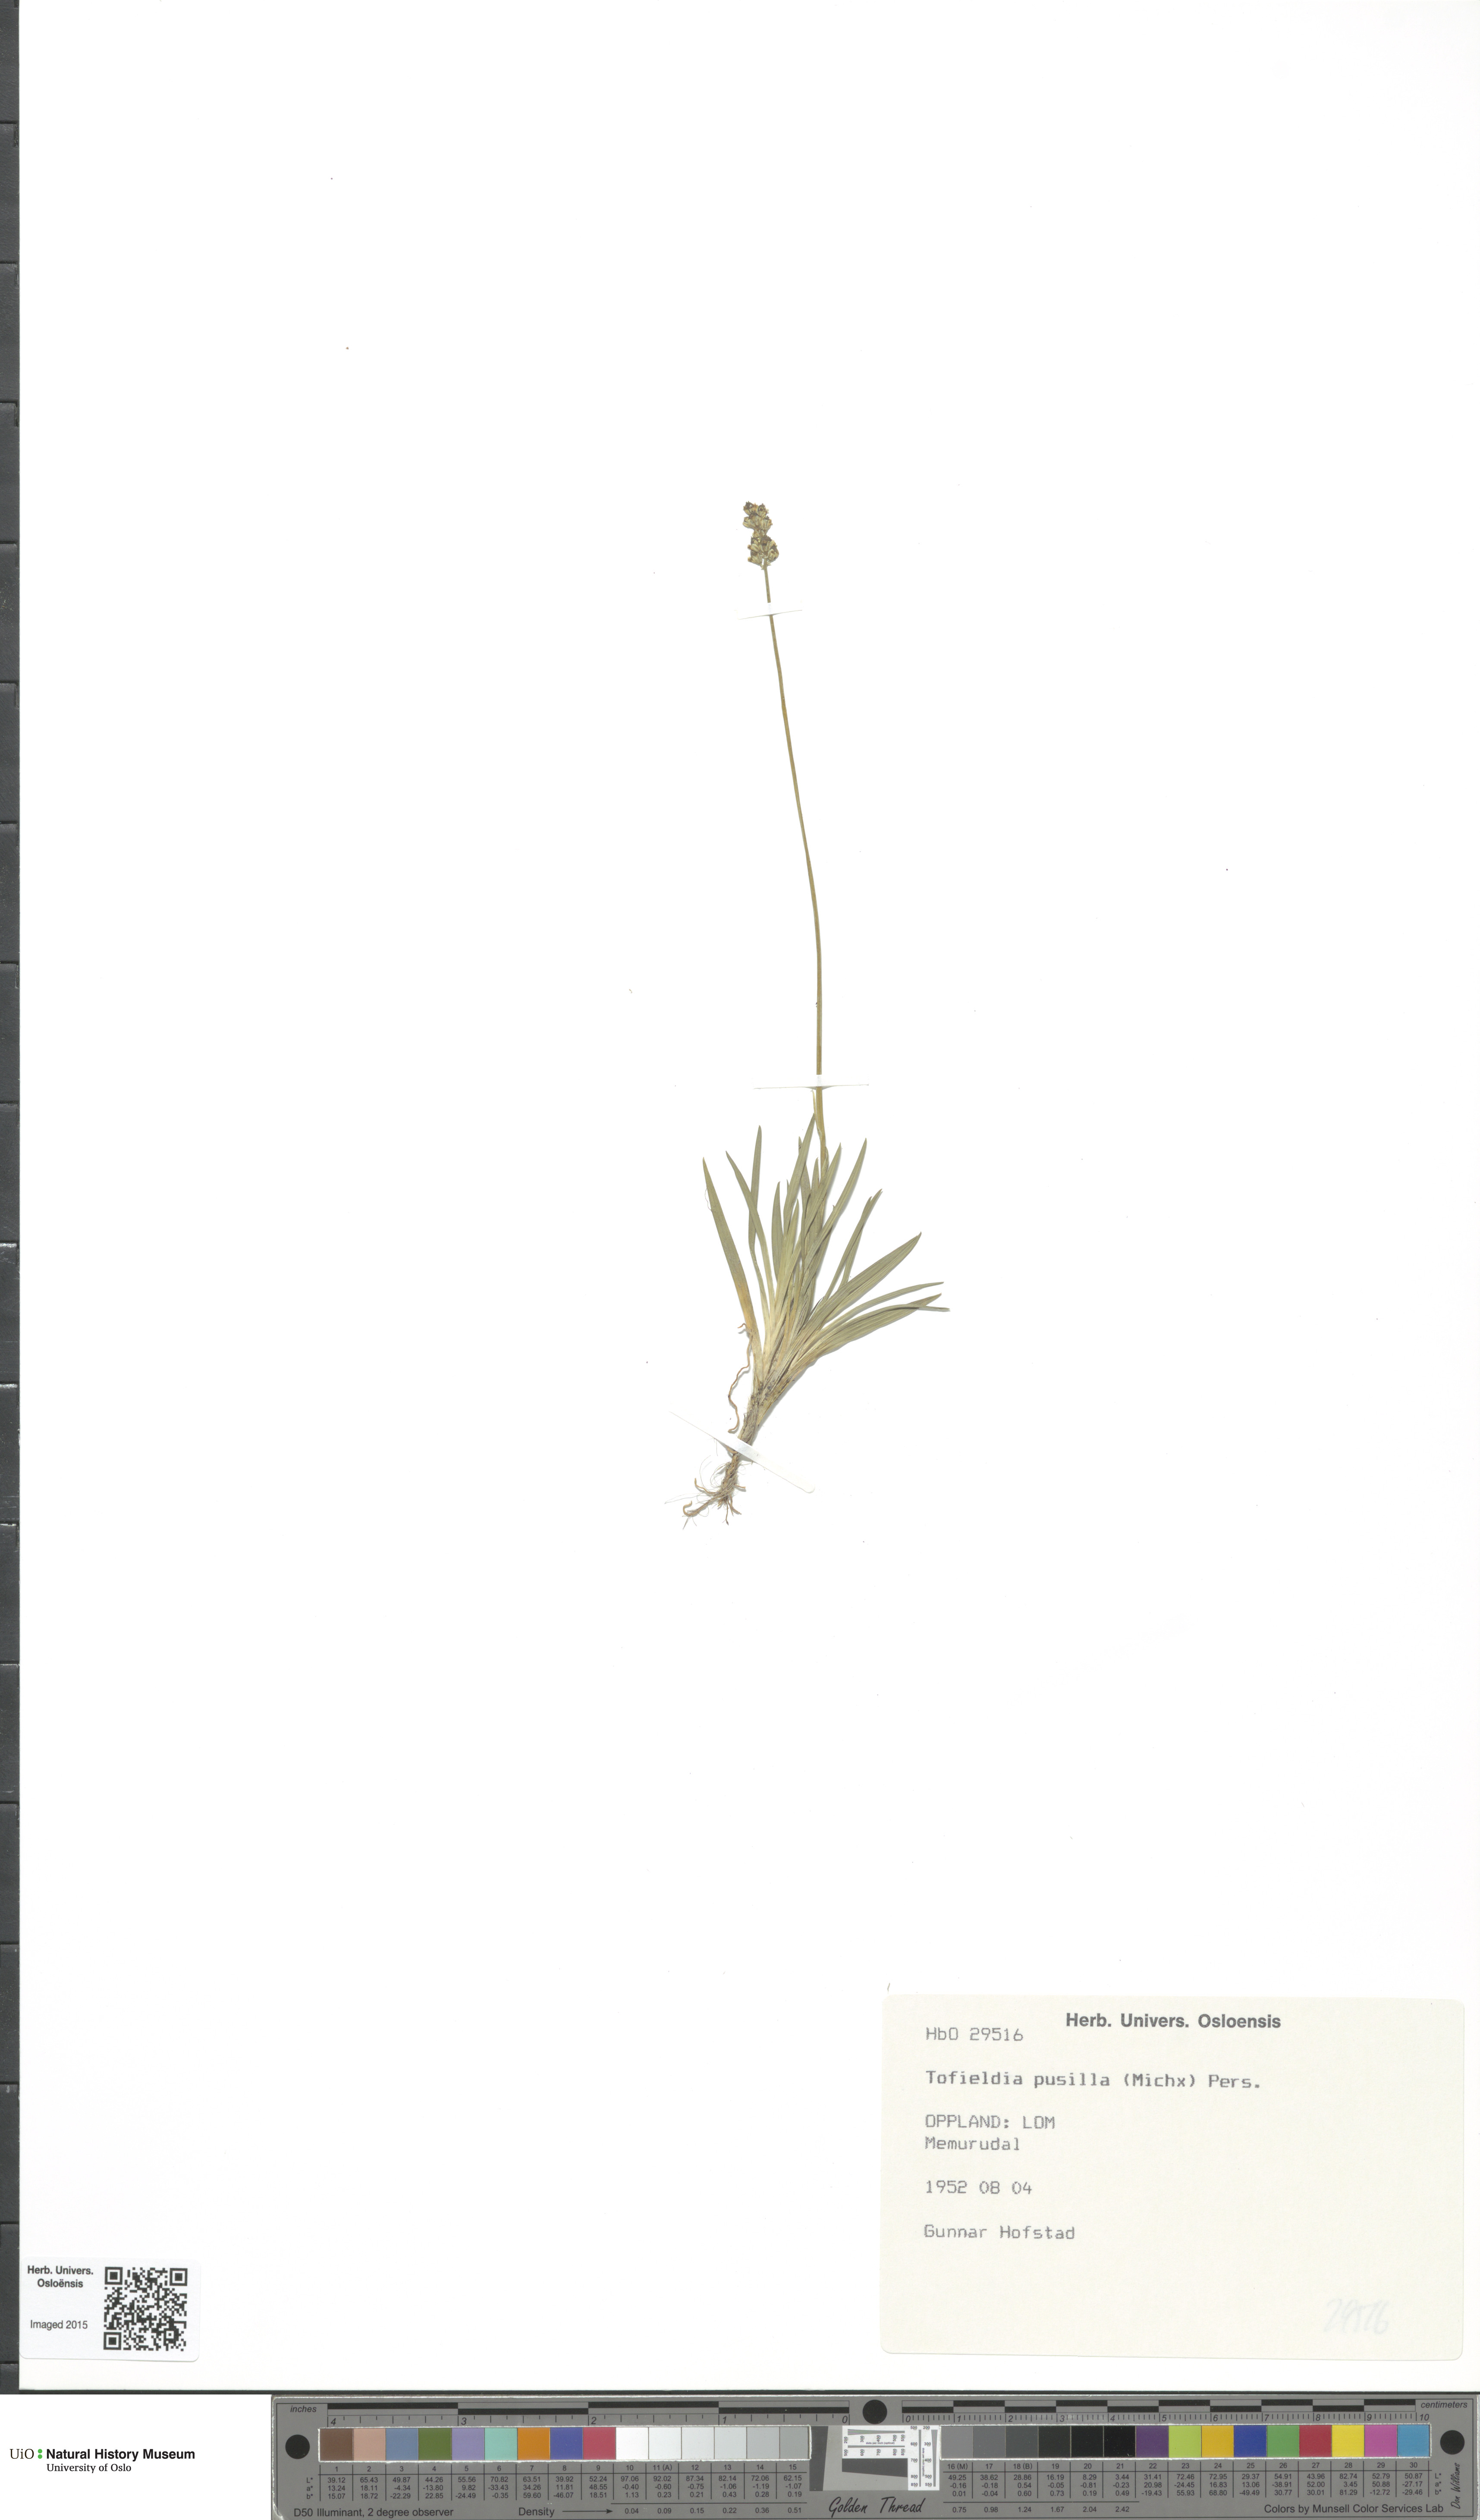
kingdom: Plantae
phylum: Tracheophyta
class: Liliopsida
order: Alismatales
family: Tofieldiaceae
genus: Tofieldia
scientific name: Tofieldia pusilla
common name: Scottish false asphodel
